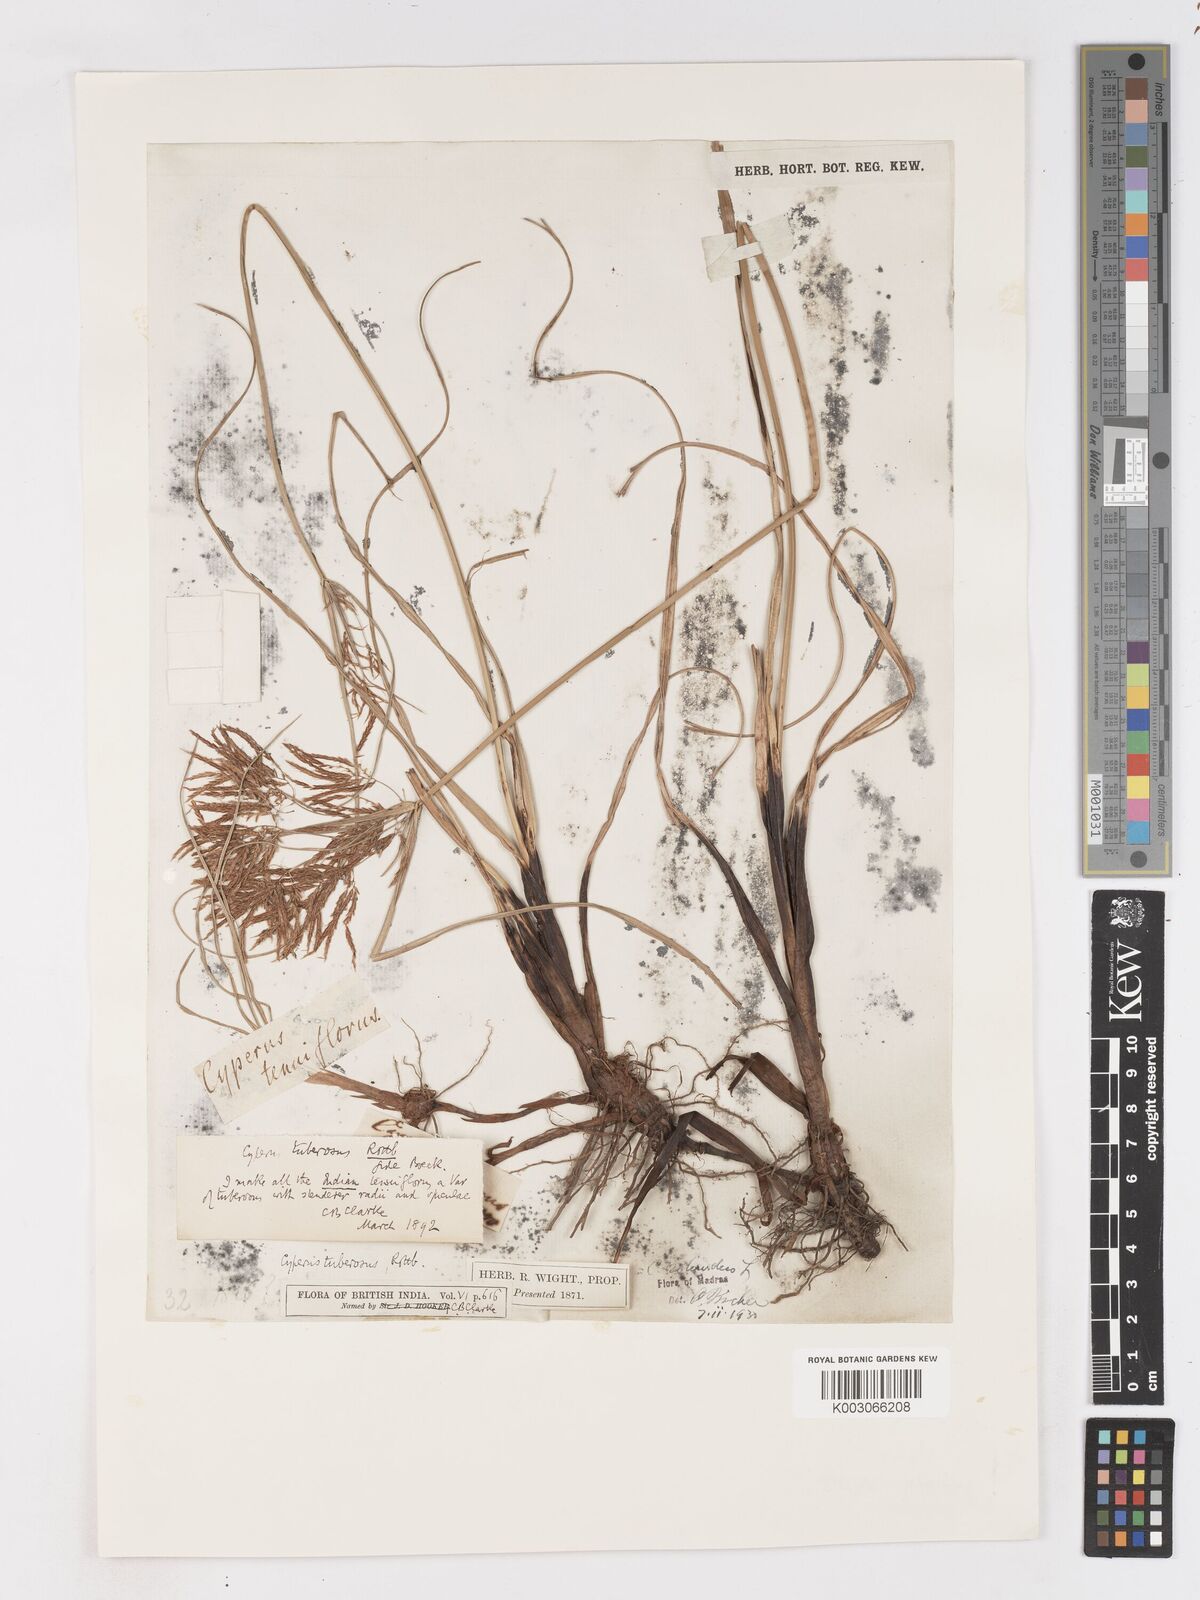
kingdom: Plantae
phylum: Tracheophyta
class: Liliopsida
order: Poales
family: Cyperaceae
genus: Cyperus
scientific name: Cyperus bifax
